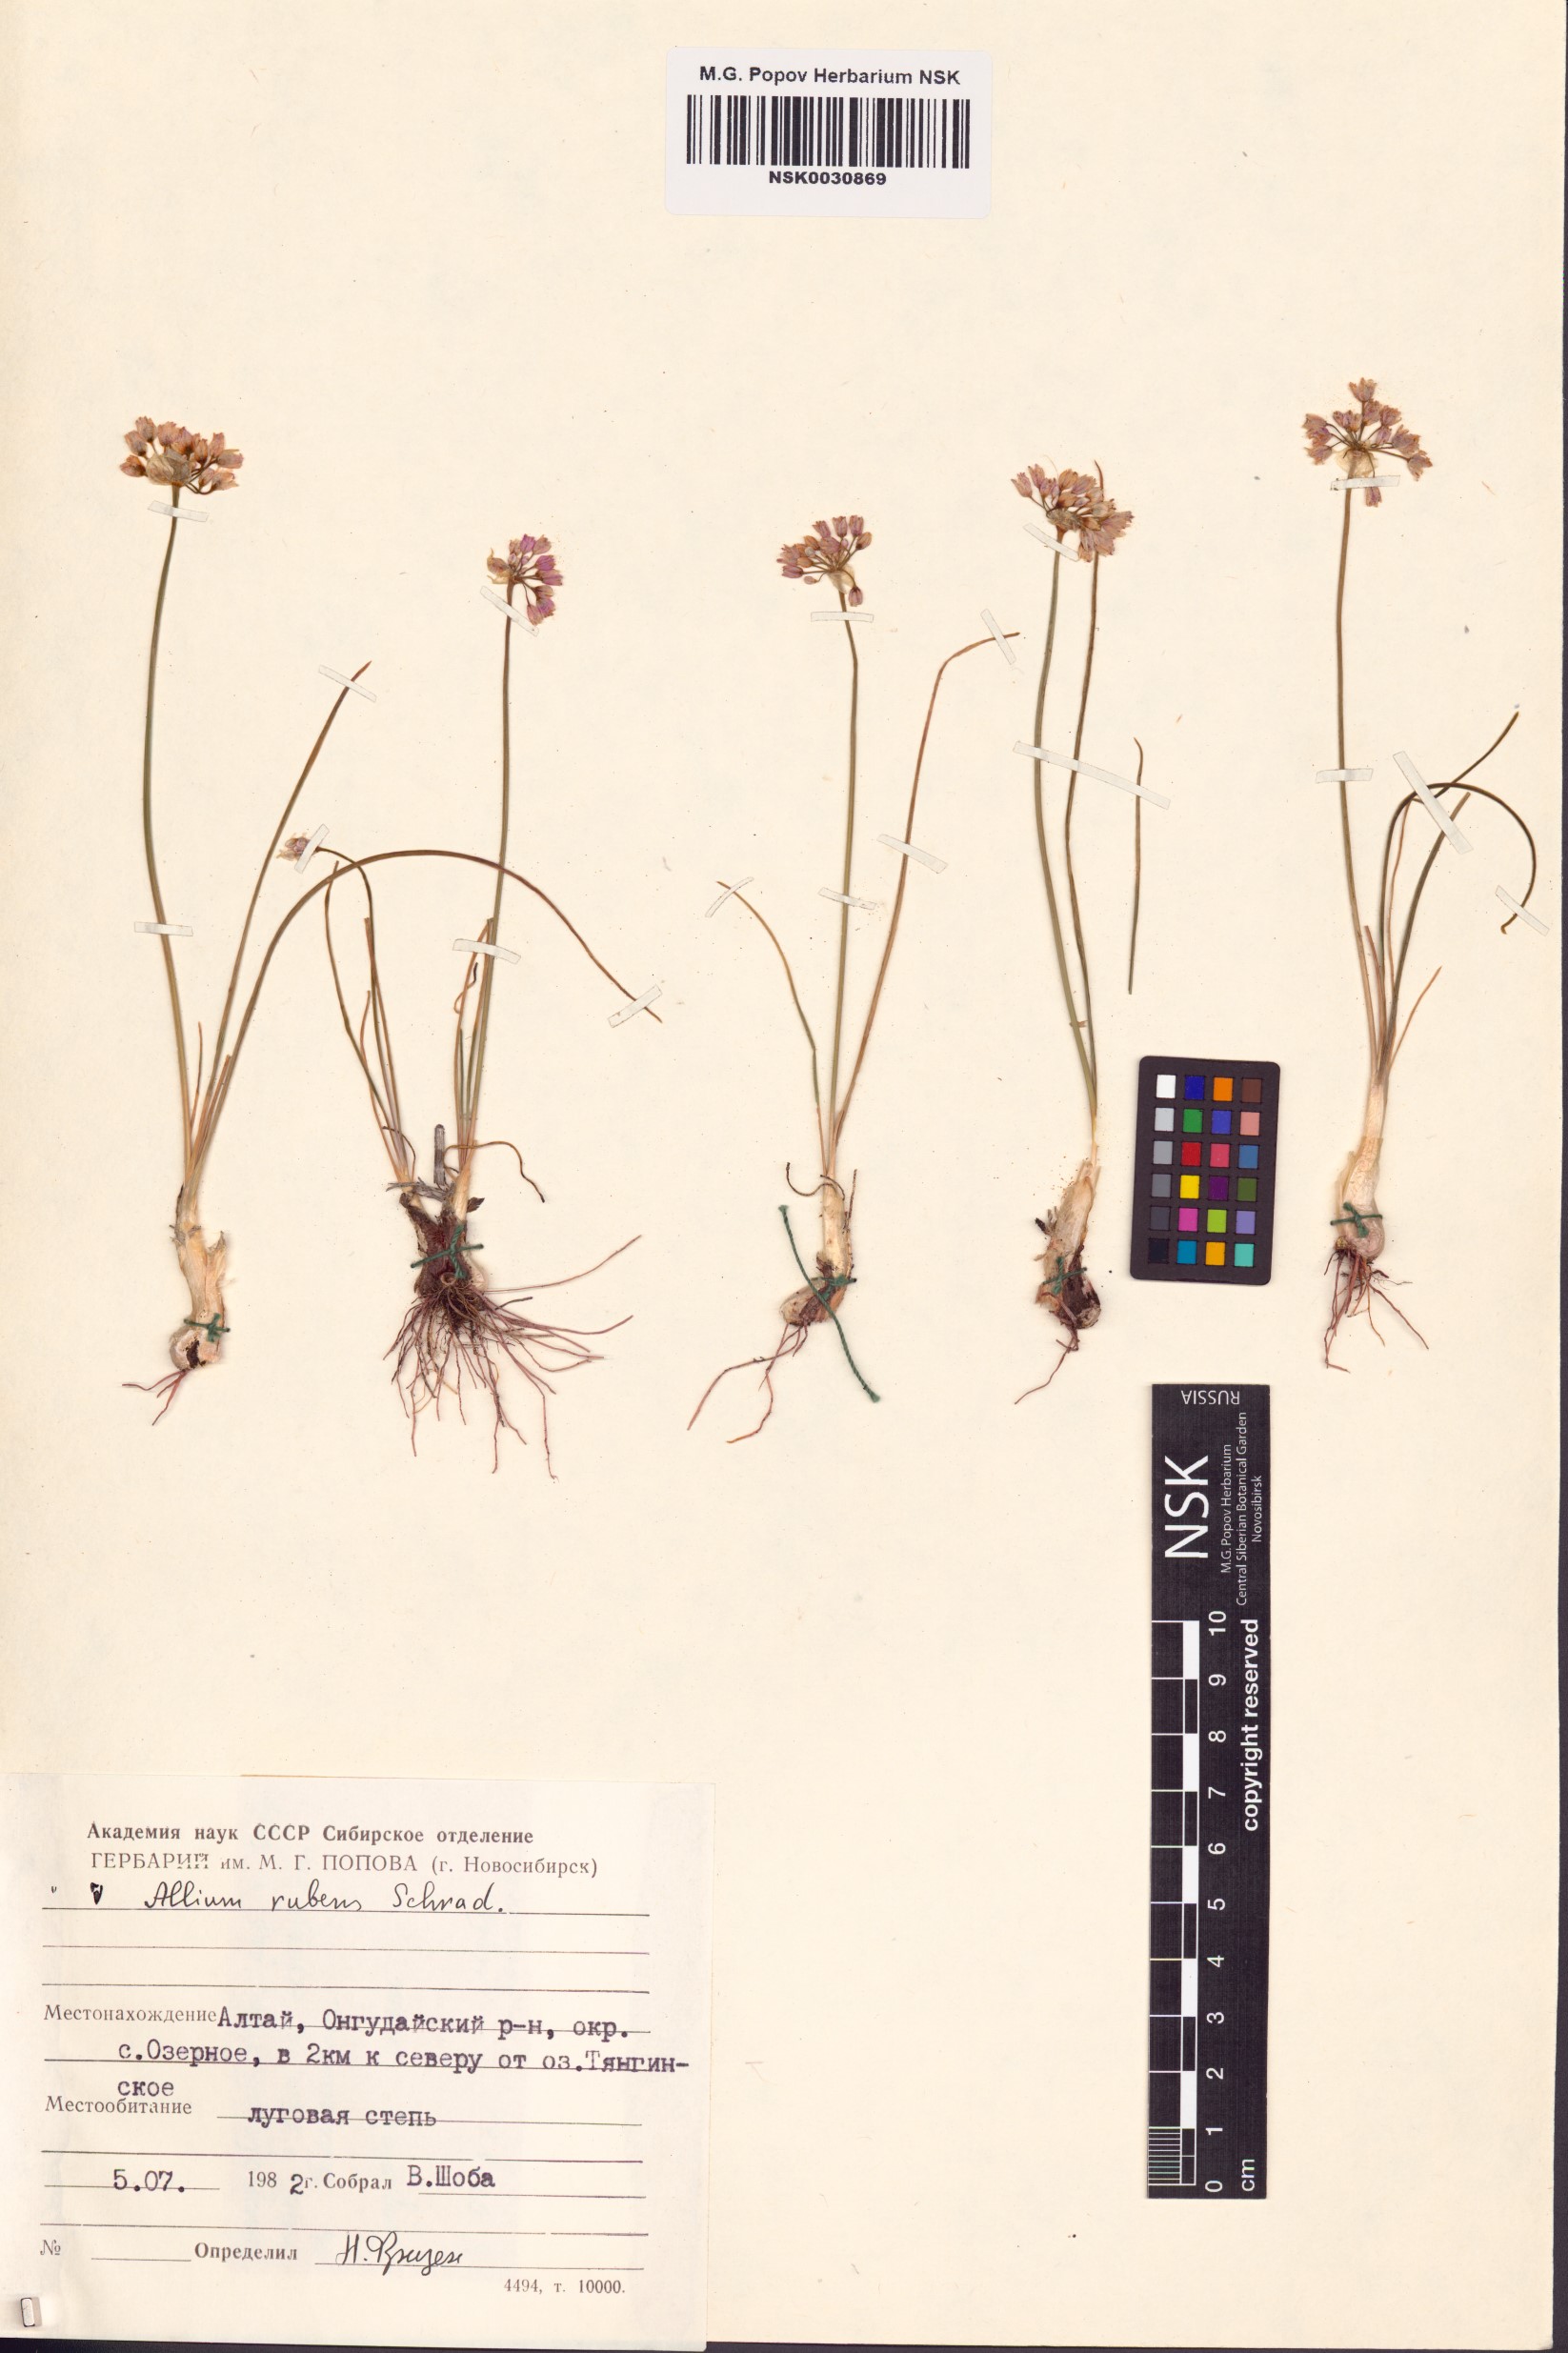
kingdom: Plantae
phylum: Tracheophyta
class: Liliopsida
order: Asparagales
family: Amaryllidaceae
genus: Allium
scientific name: Allium rubens
